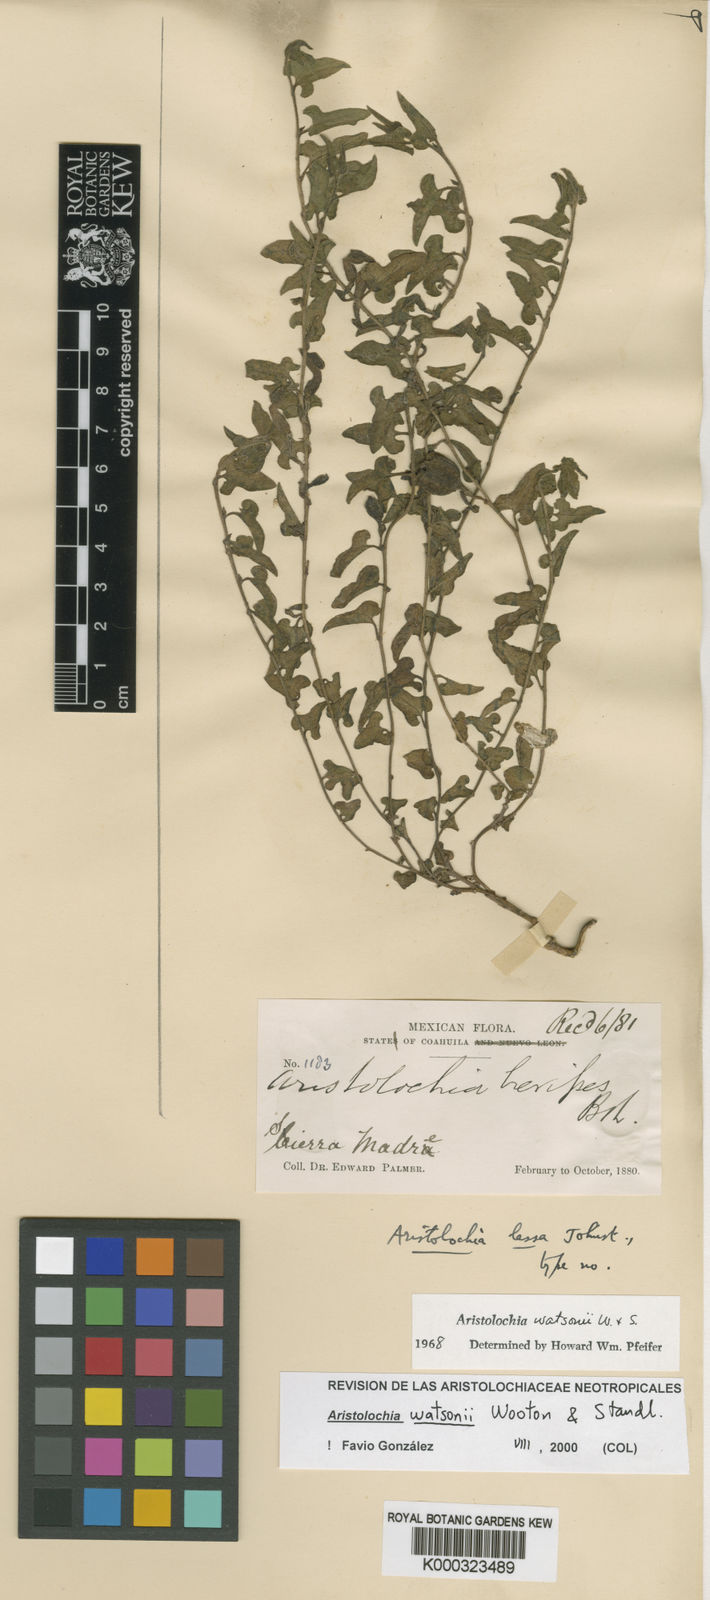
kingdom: Plantae
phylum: Tracheophyta
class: Magnoliopsida
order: Piperales
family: Aristolochiaceae
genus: Aristolochia
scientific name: Aristolochia watsonii
